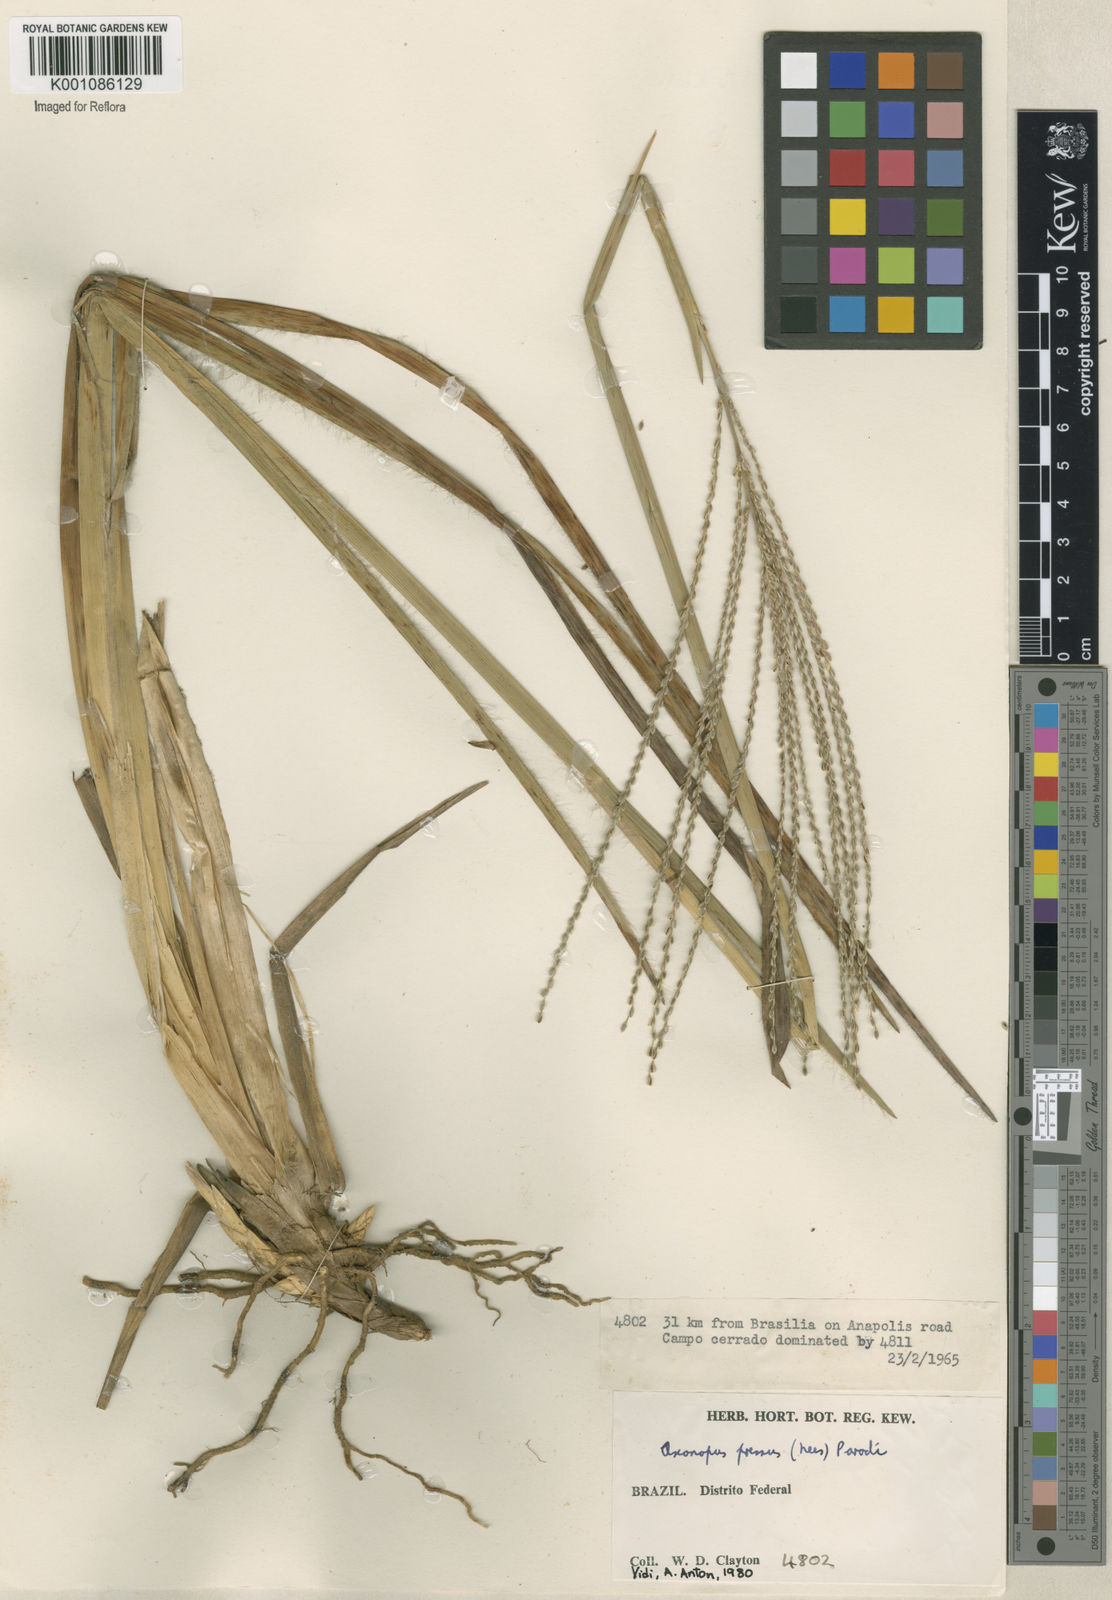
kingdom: Plantae
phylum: Tracheophyta
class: Liliopsida
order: Poales
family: Poaceae
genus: Axonopus
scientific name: Axonopus pressus
